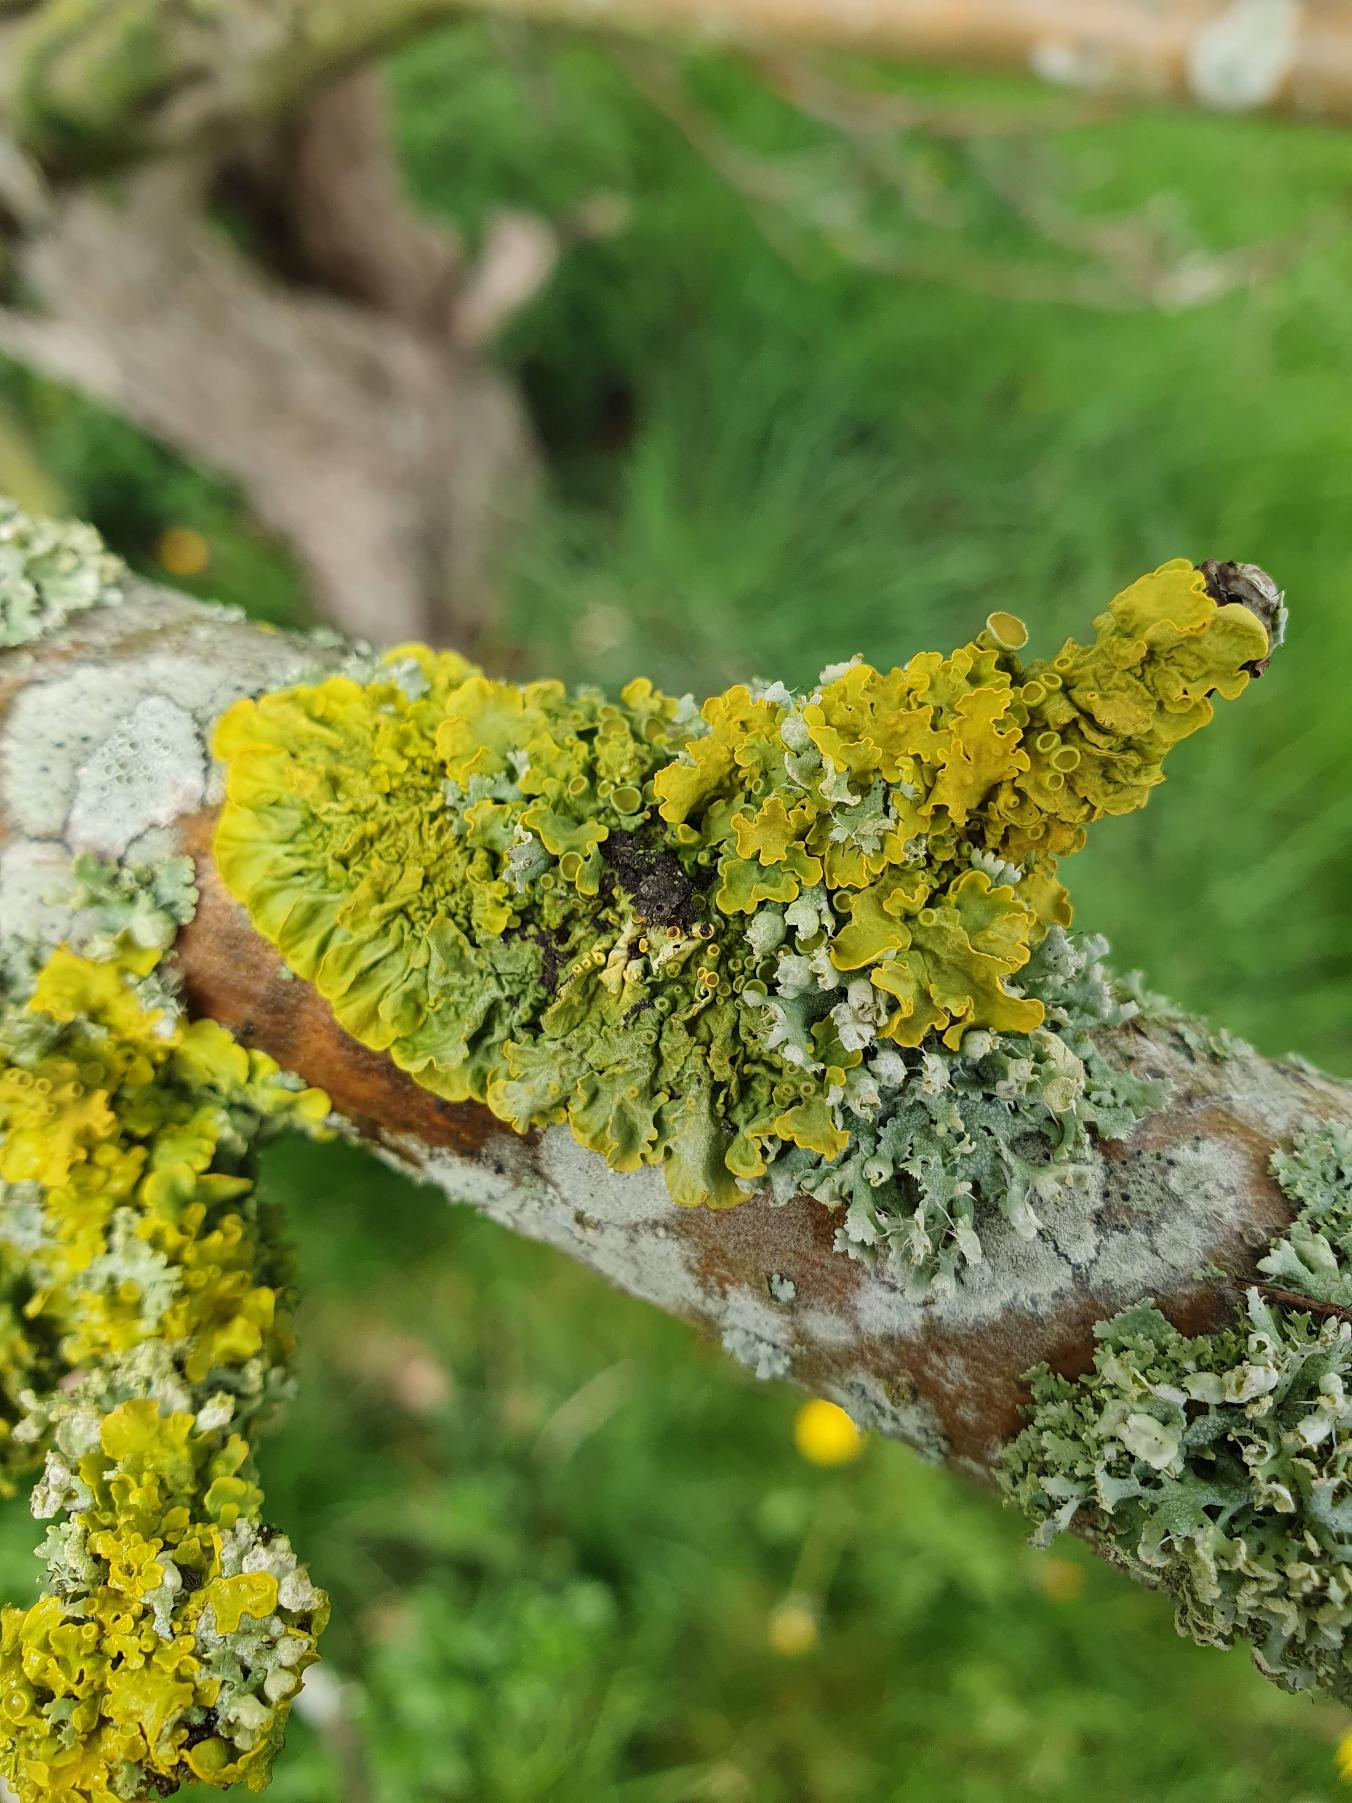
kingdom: Fungi
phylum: Ascomycota
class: Lecanoromycetes
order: Teloschistales
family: Teloschistaceae
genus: Xanthoria
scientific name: Xanthoria parietina
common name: Almindelig væggelav
